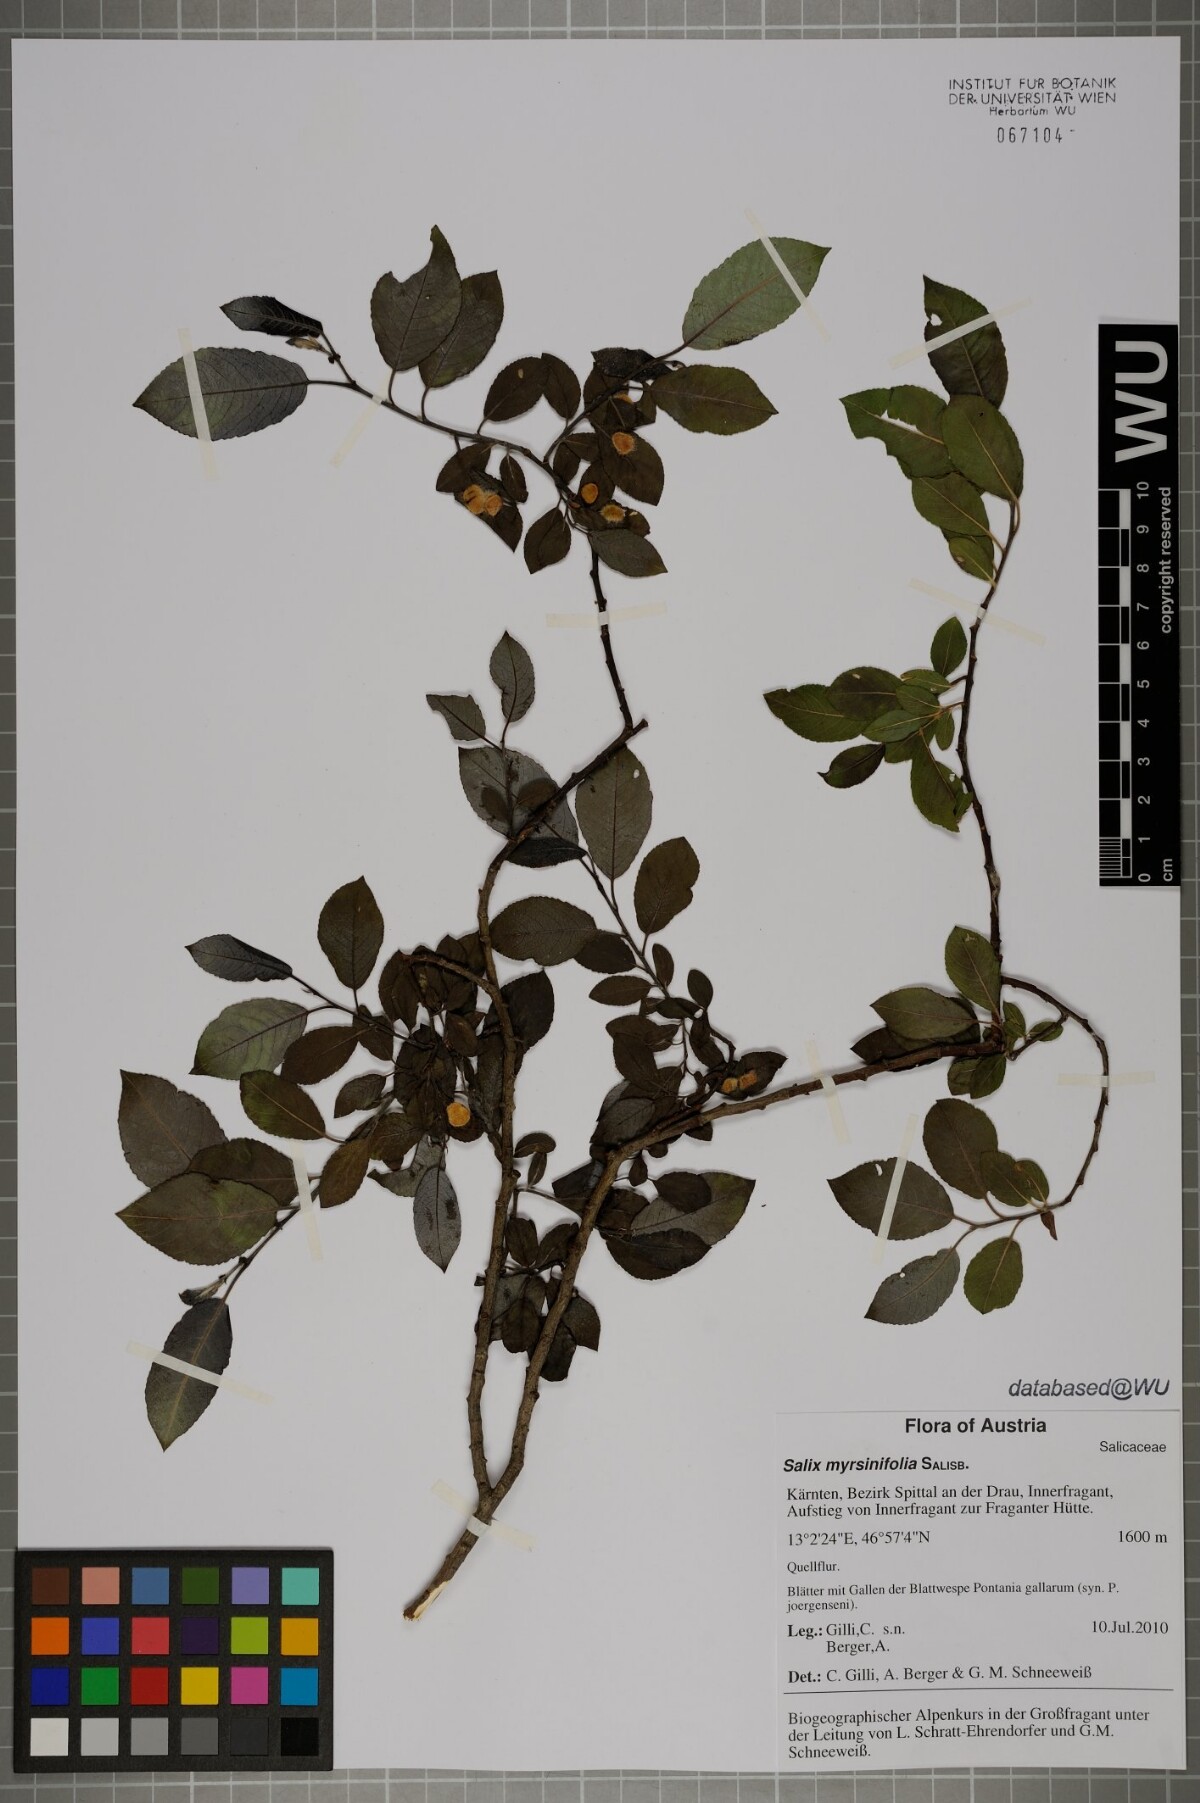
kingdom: Plantae
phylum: Tracheophyta
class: Magnoliopsida
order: Malpighiales
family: Salicaceae
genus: Salix
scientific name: Salix myrsinifolia
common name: Dark-leaved willow
